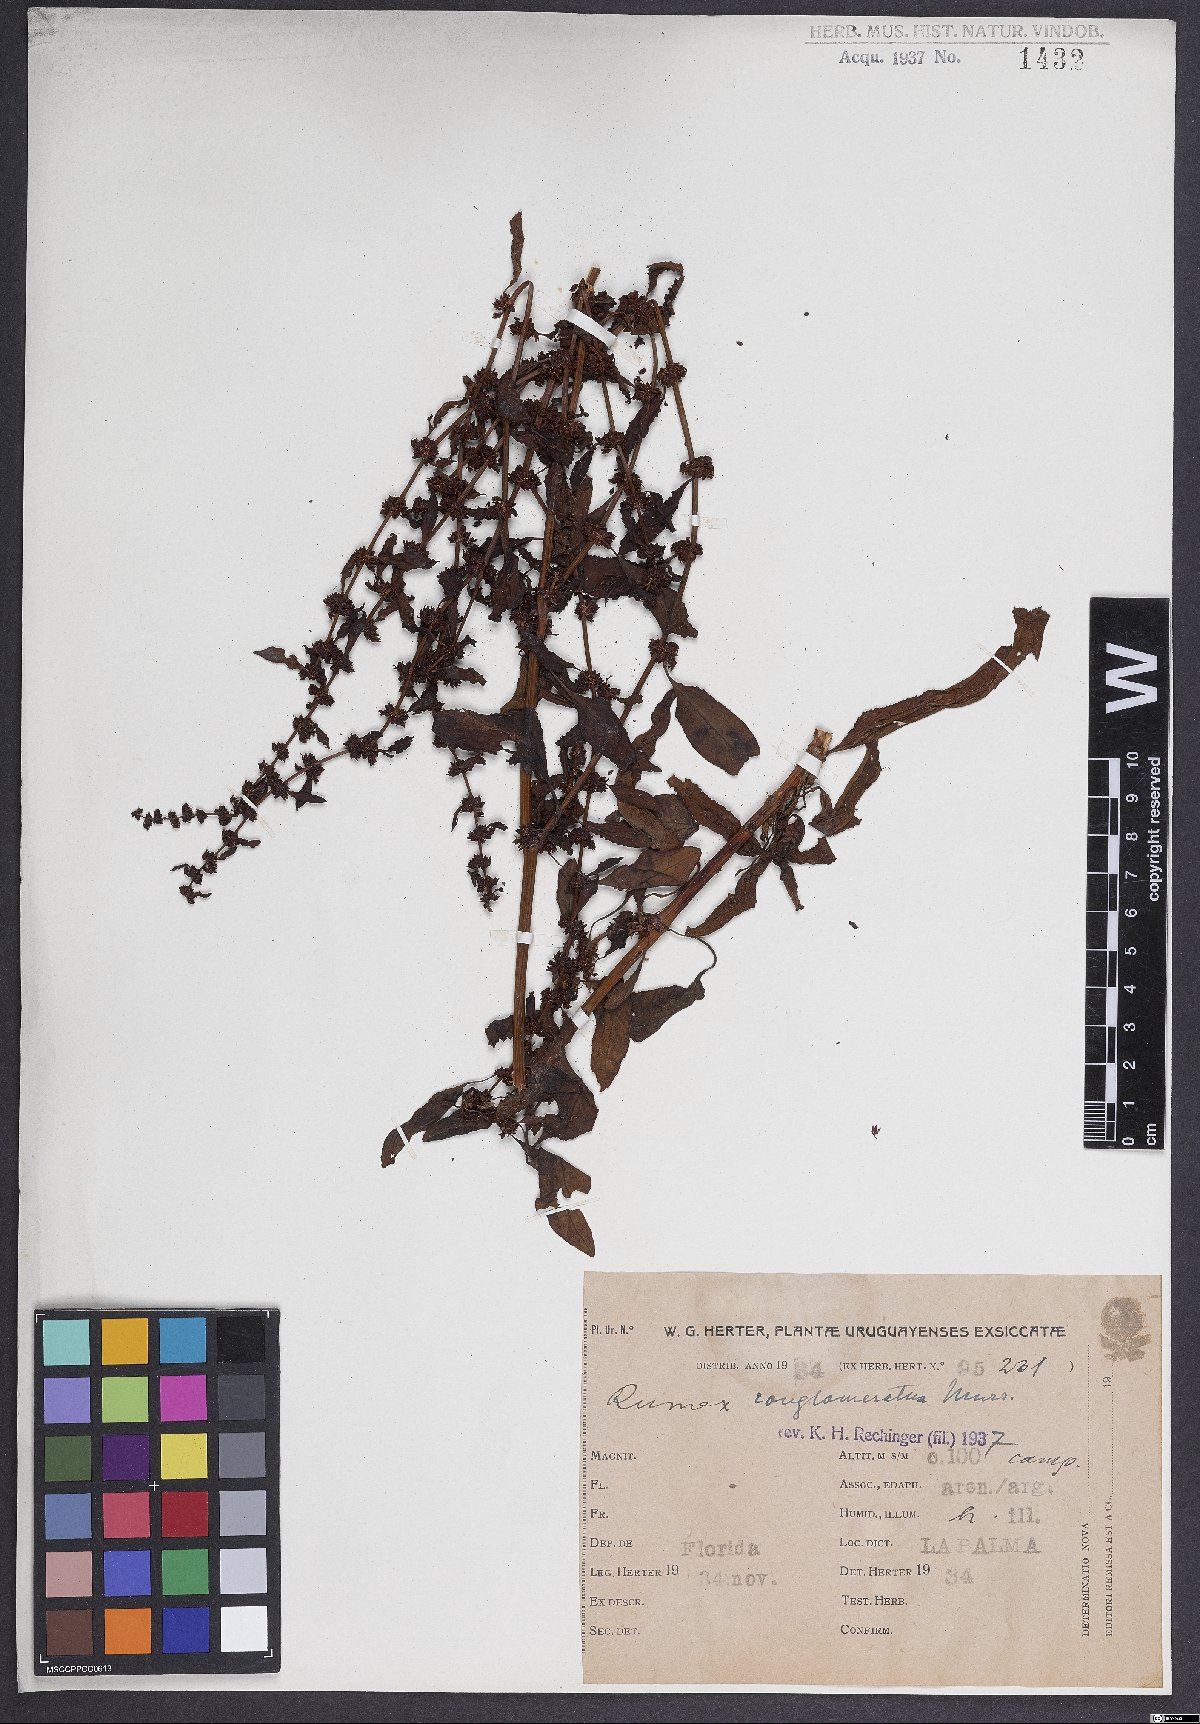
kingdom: Plantae
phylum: Tracheophyta
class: Magnoliopsida
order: Caryophyllales
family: Polygonaceae
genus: Rumex
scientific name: Rumex conglomeratus
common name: Clustered dock
